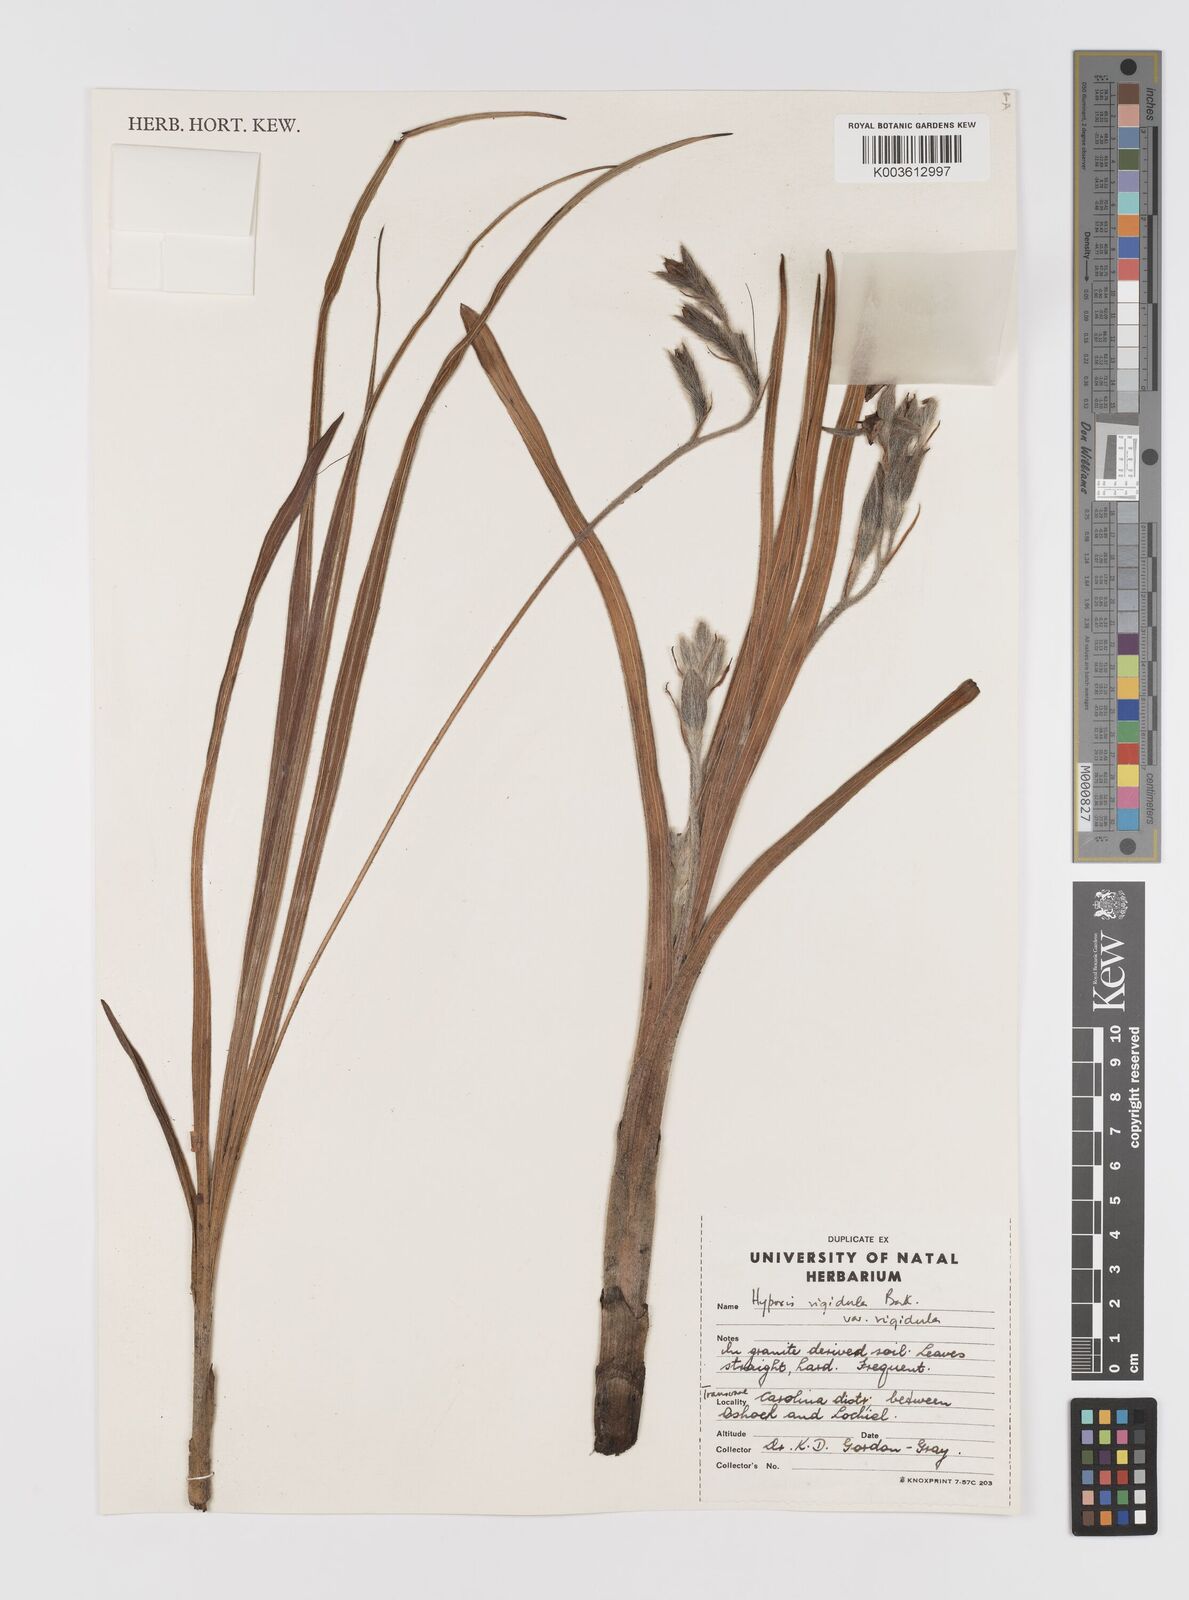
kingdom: Plantae
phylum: Tracheophyta
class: Liliopsida
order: Asparagales
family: Hypoxidaceae
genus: Hypoxis
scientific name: Hypoxis rigidula
